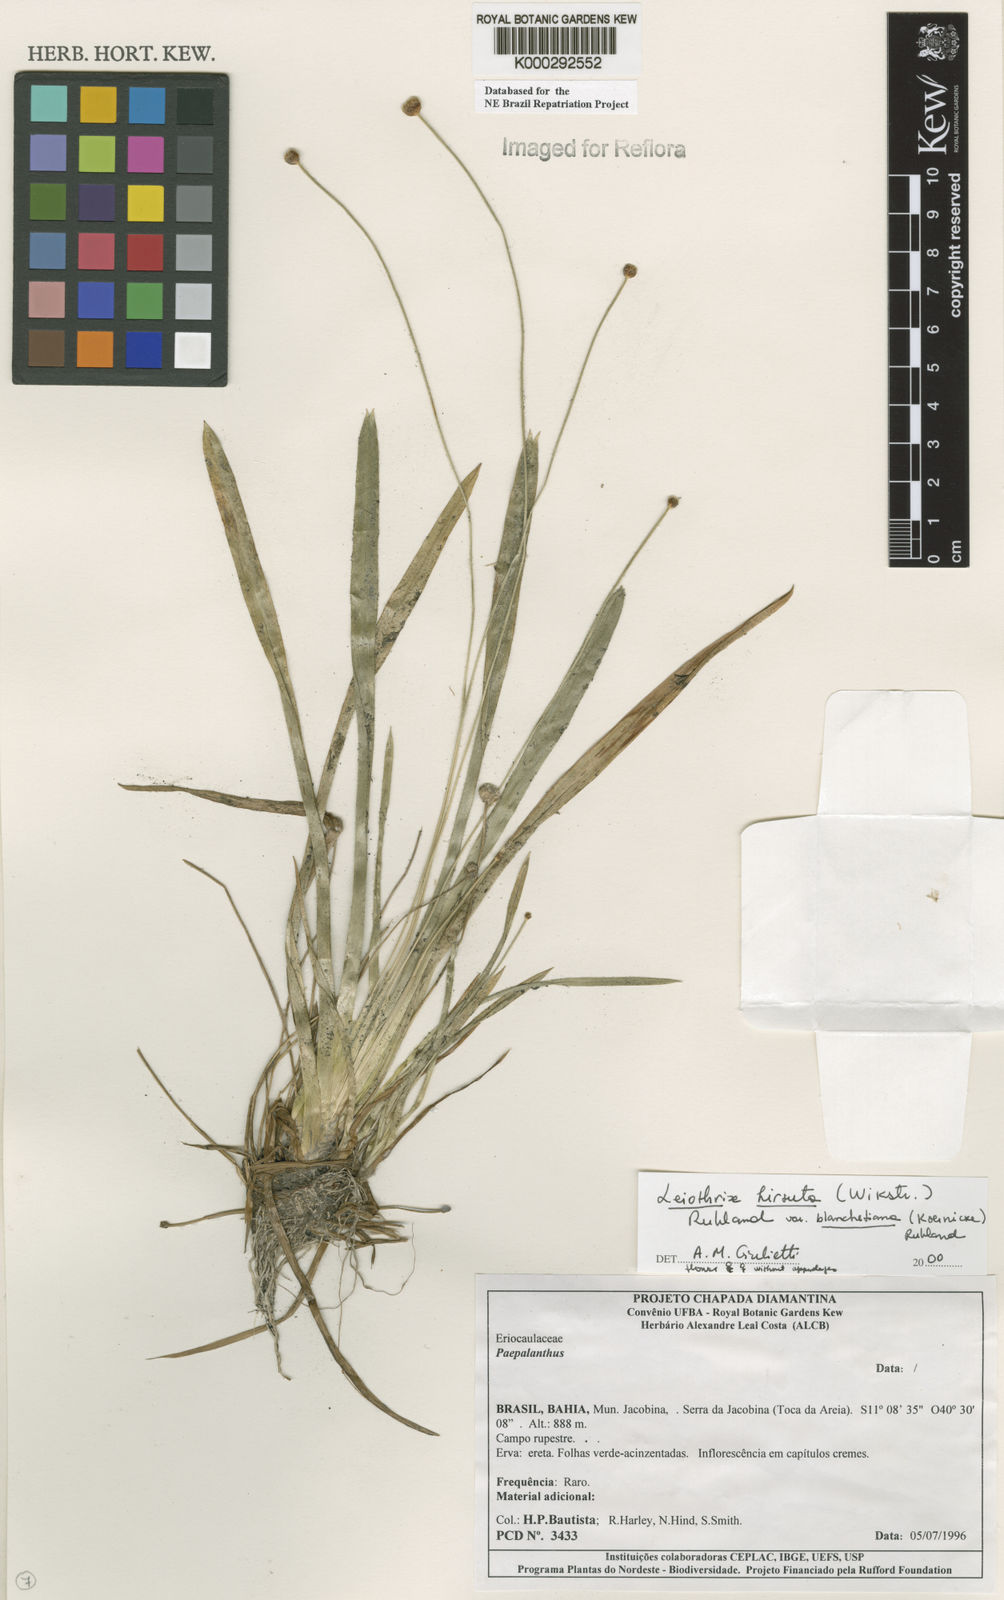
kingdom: Plantae
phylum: Tracheophyta
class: Liliopsida
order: Poales
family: Eriocaulaceae
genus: Leiothrix
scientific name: Leiothrix hirsuta
